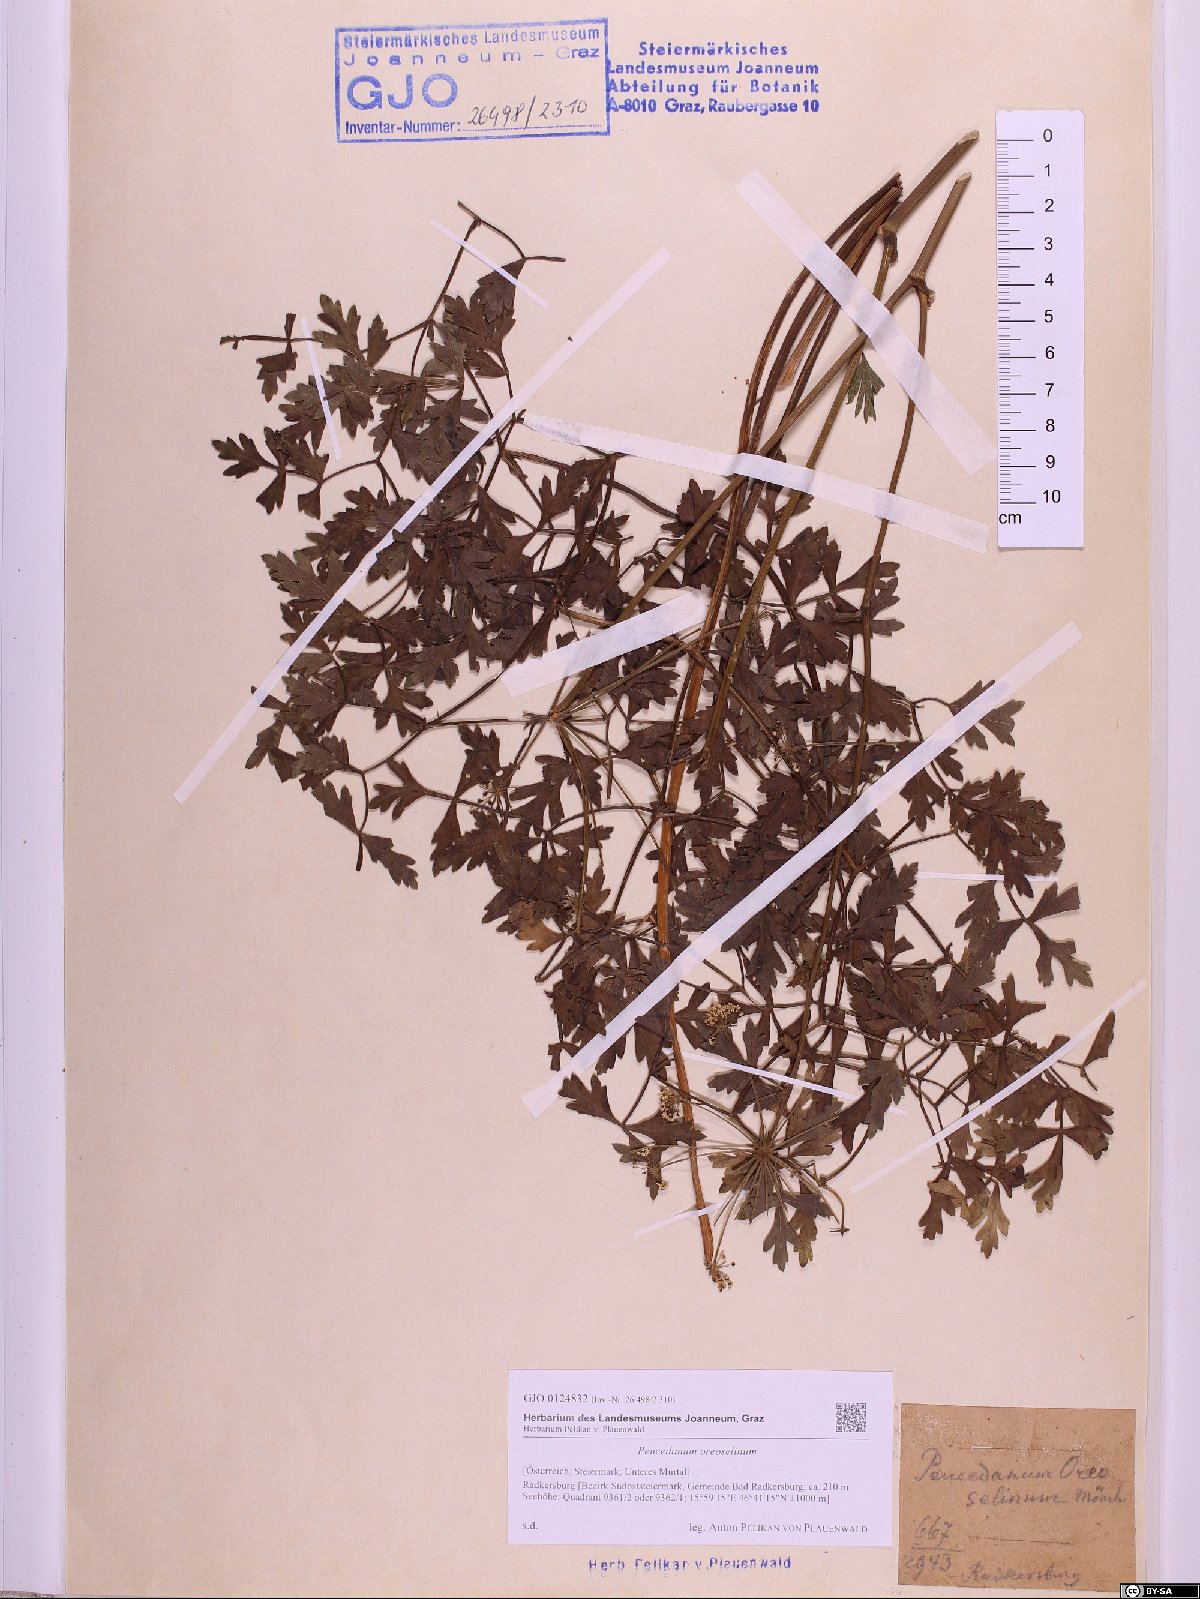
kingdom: Plantae
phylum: Tracheophyta
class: Magnoliopsida
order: Apiales
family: Apiaceae
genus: Oreoselinum
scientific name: Oreoselinum nigrum
